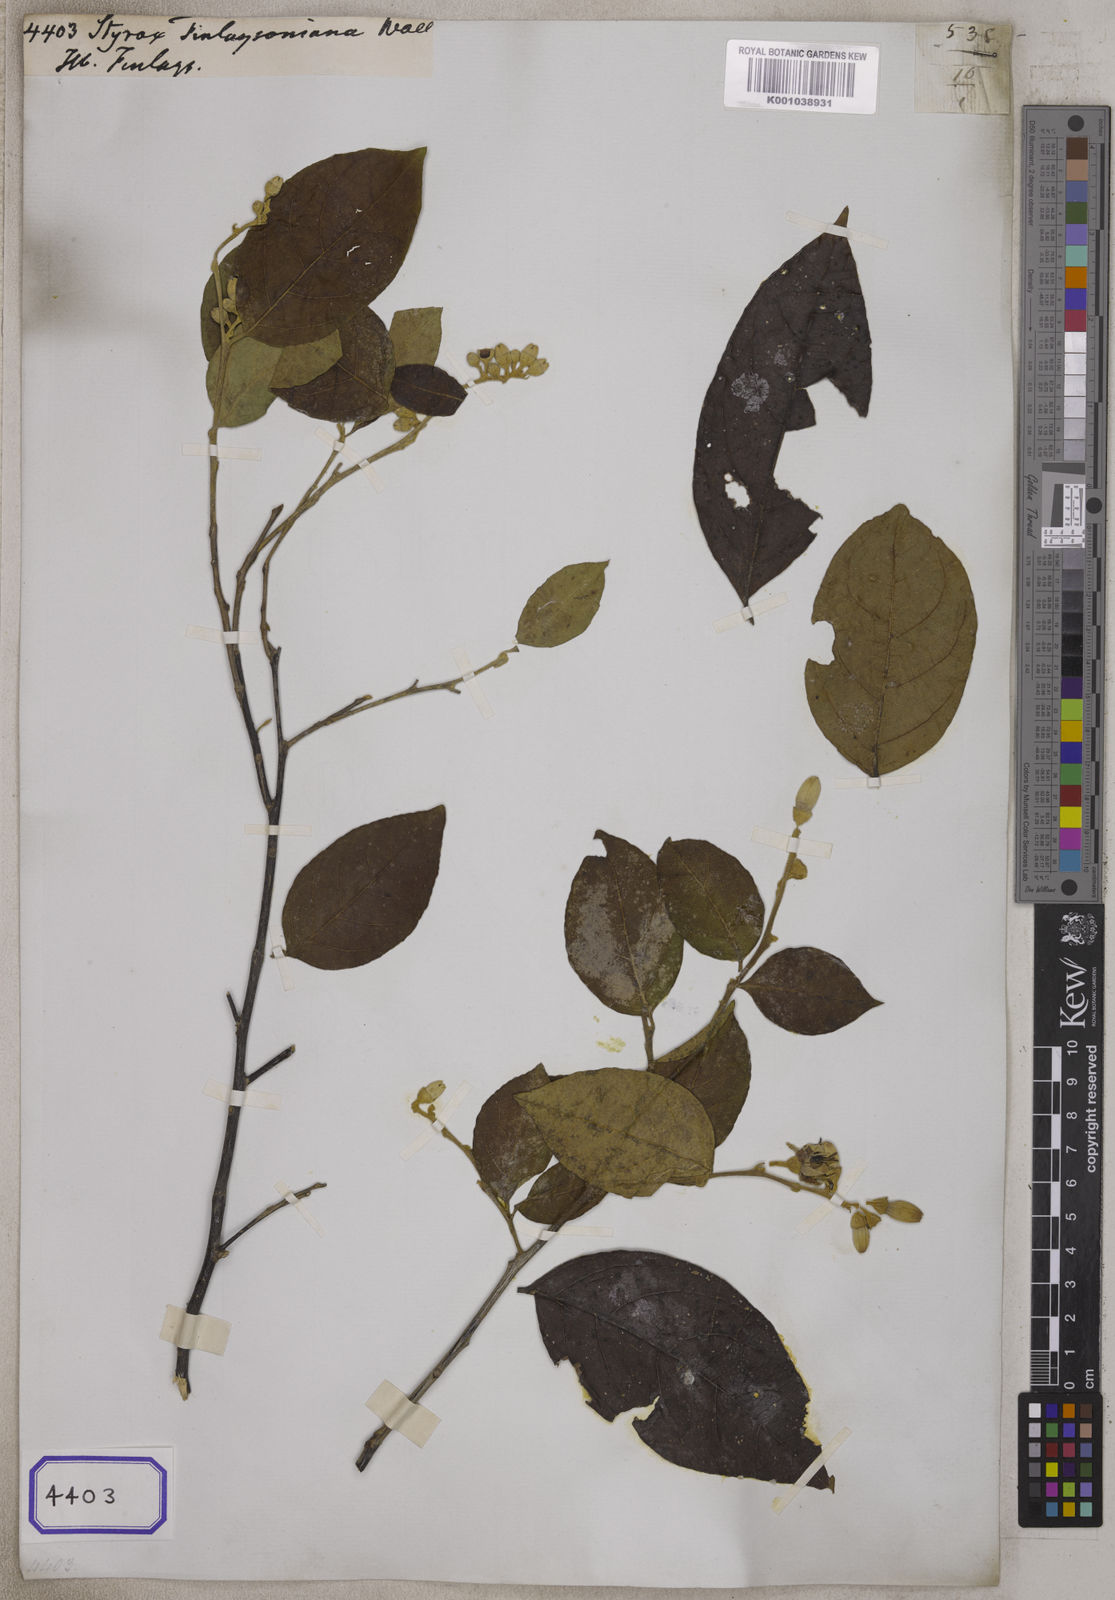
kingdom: Plantae
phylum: Tracheophyta
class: Magnoliopsida
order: Ericales
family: Styracaceae
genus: Styrax
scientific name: Styrax
